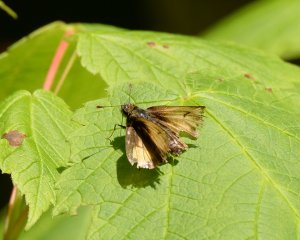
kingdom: Animalia
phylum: Arthropoda
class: Insecta
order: Lepidoptera
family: Hesperiidae
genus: Lon
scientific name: Lon hobomok
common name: Hobomok Skipper
